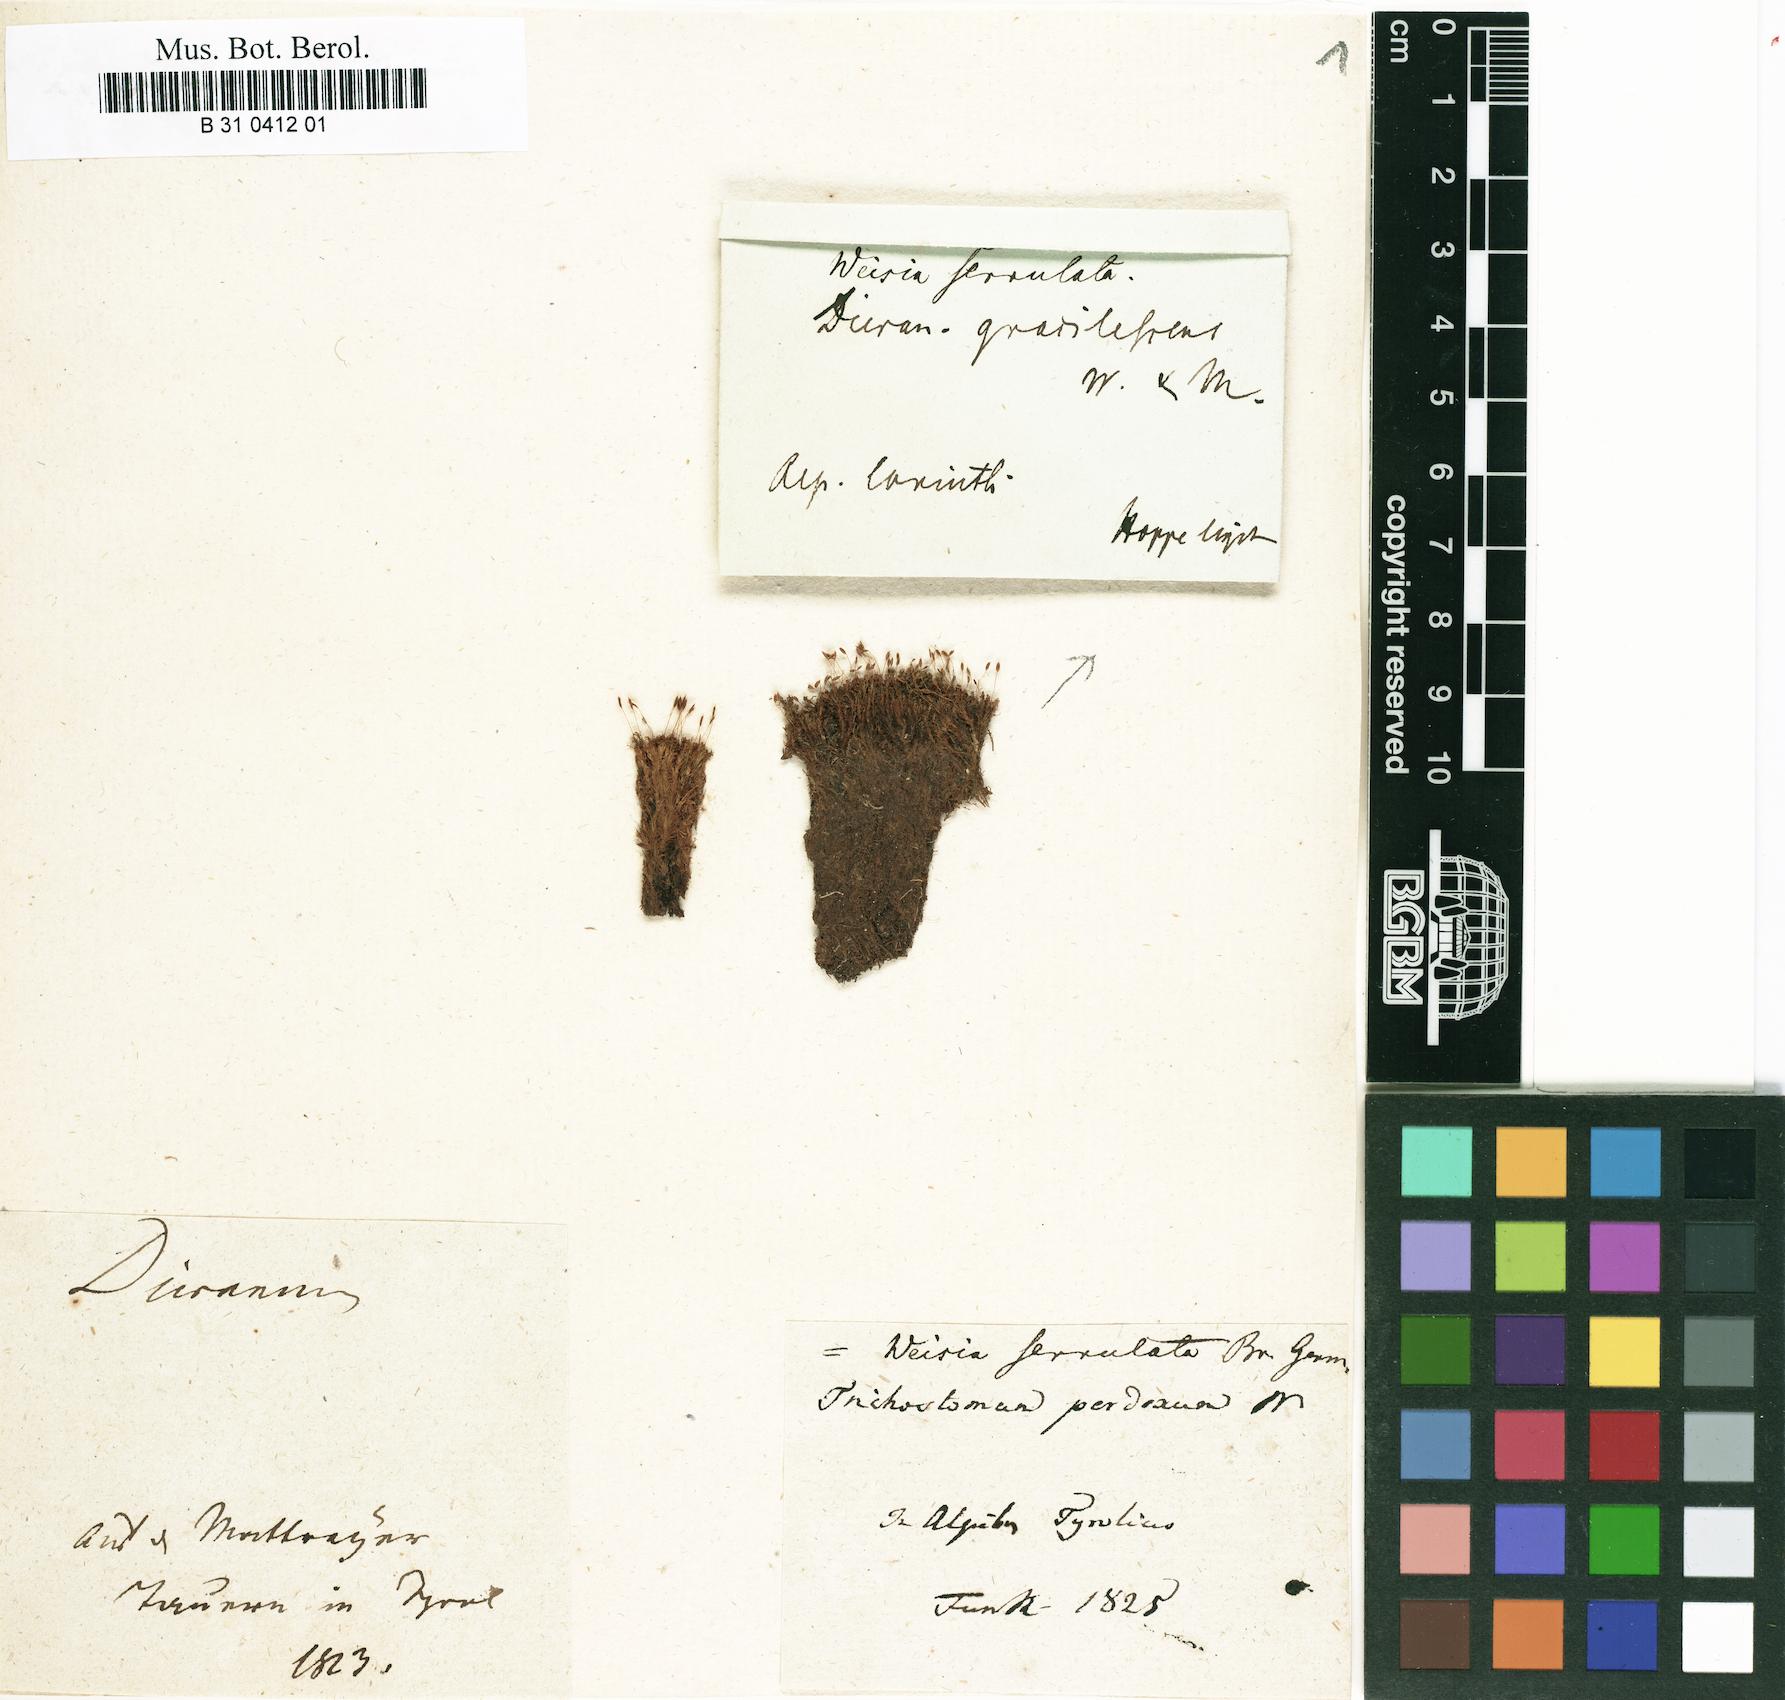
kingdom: Plantae
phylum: Bryophyta
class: Bryopsida
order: Dicranales
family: Rhabdoweisiaceae
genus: Cynodontium
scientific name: Cynodontium serrulatum
